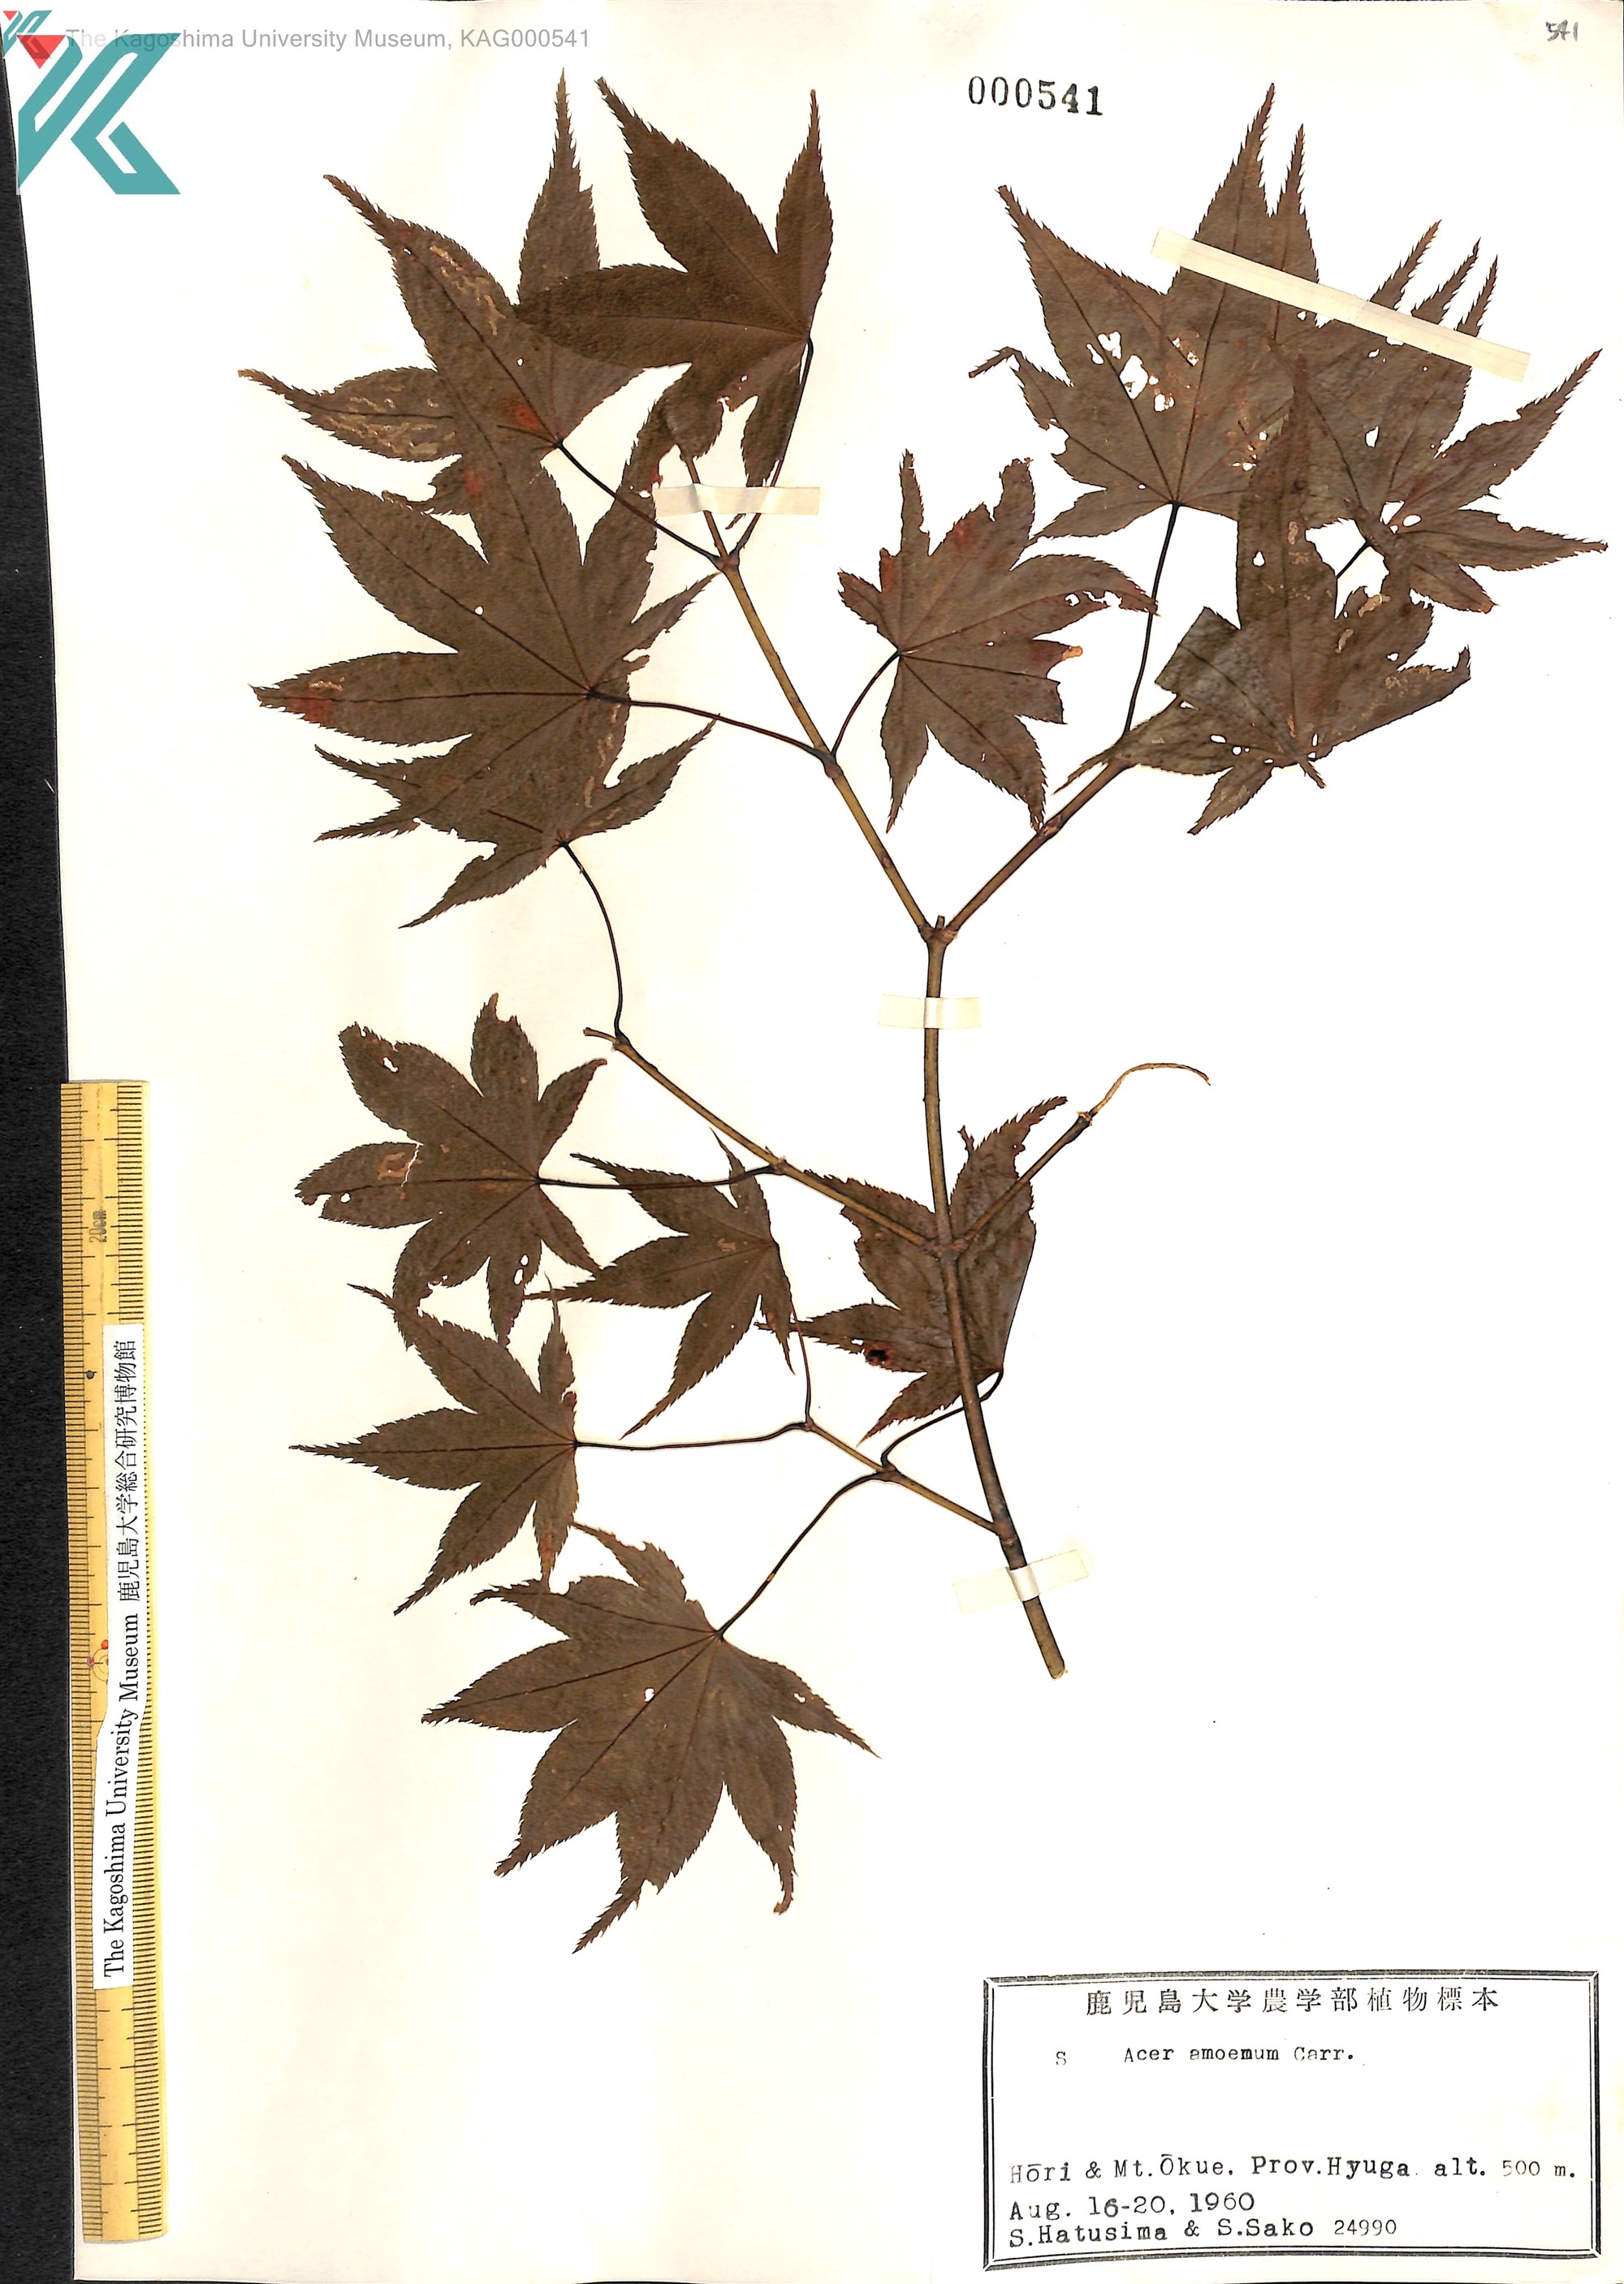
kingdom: Plantae
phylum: Tracheophyta
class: Magnoliopsida
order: Sapindales
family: Sapindaceae
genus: Acer
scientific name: Acer palmatum
